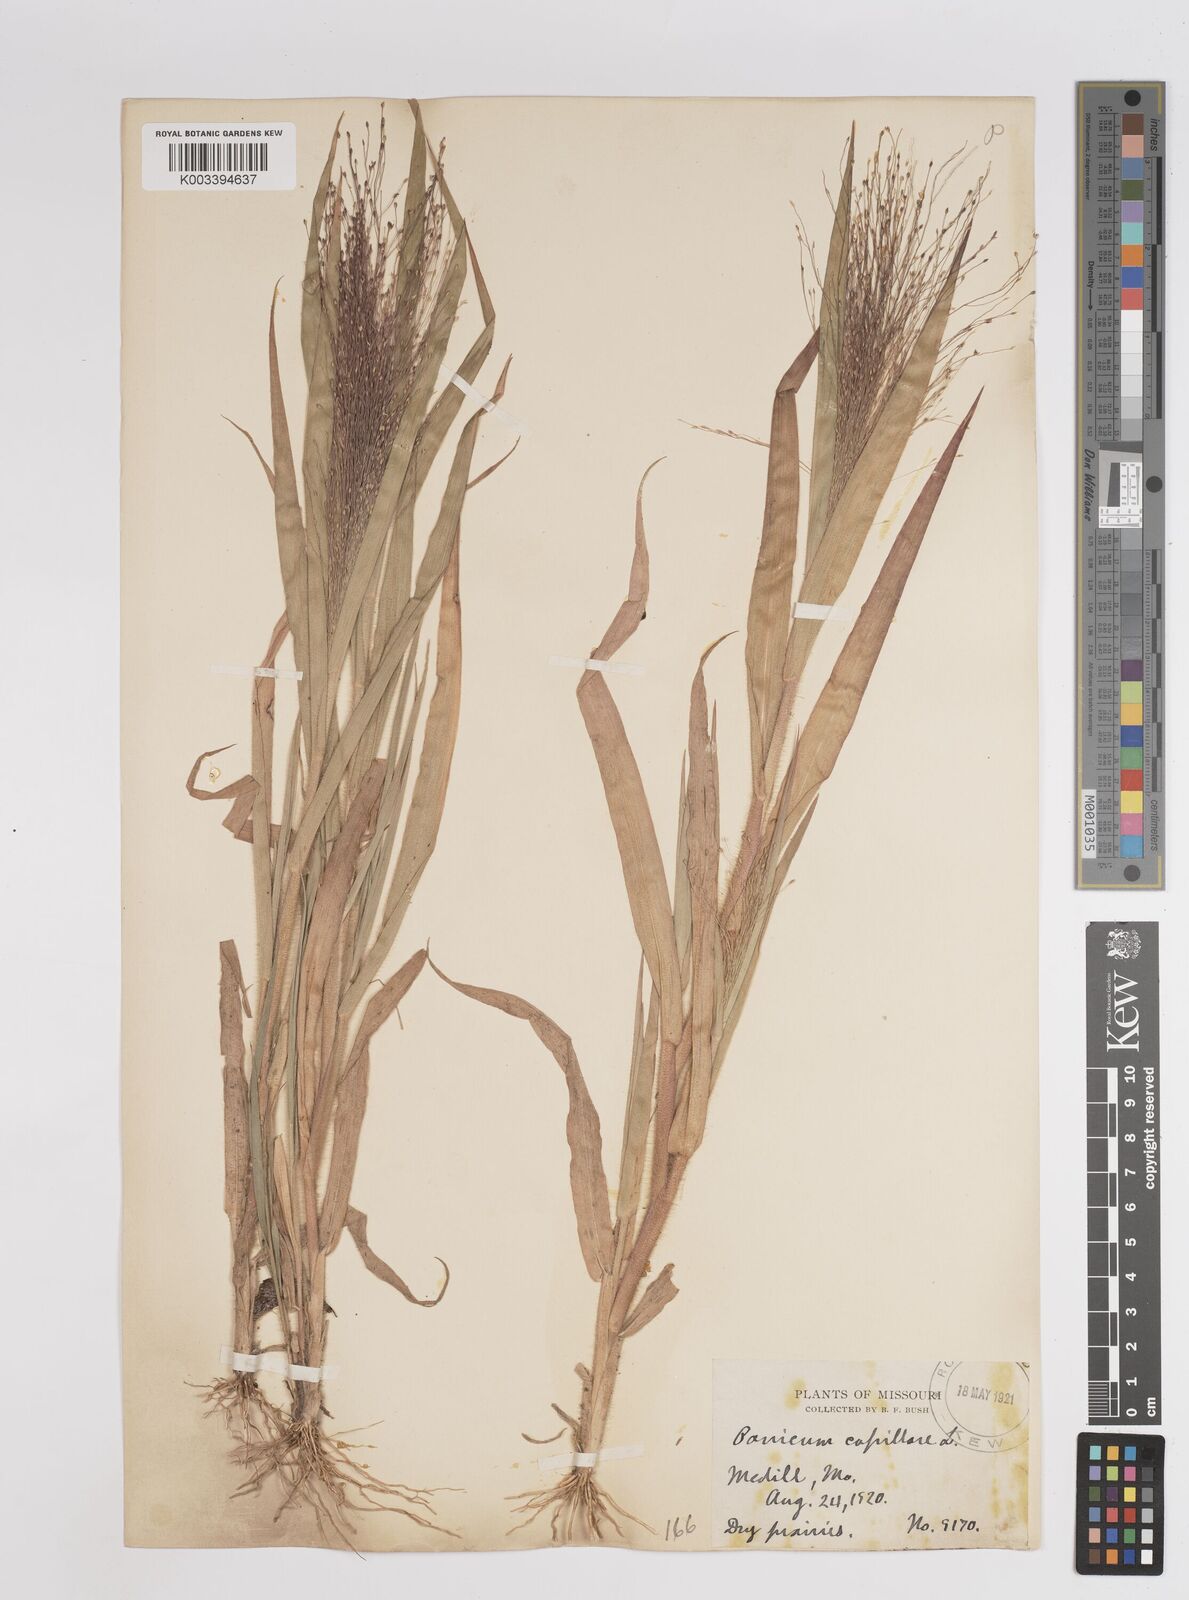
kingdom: Plantae
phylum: Tracheophyta
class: Liliopsida
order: Poales
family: Poaceae
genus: Panicum
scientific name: Panicum capillare
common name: Witch-grass
